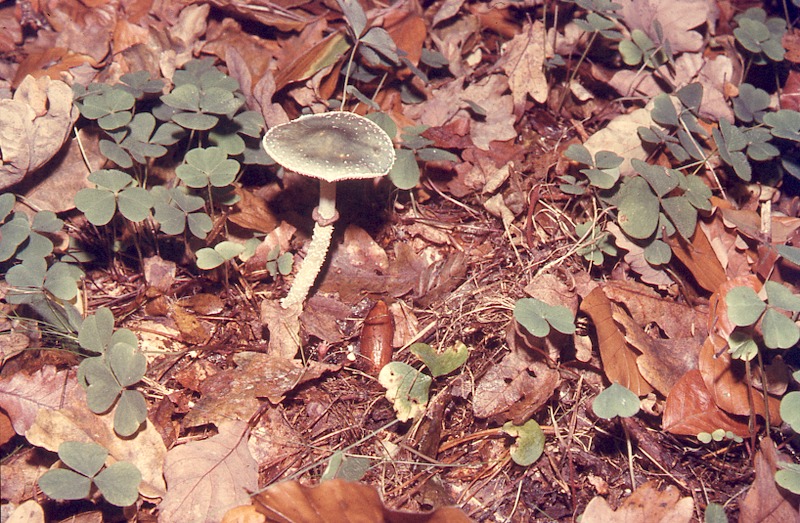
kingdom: Fungi
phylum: Basidiomycota
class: Agaricomycetes
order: Agaricales
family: Strophariaceae
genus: Stropharia
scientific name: Stropharia aeruginosa
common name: Verdigris roundhead
